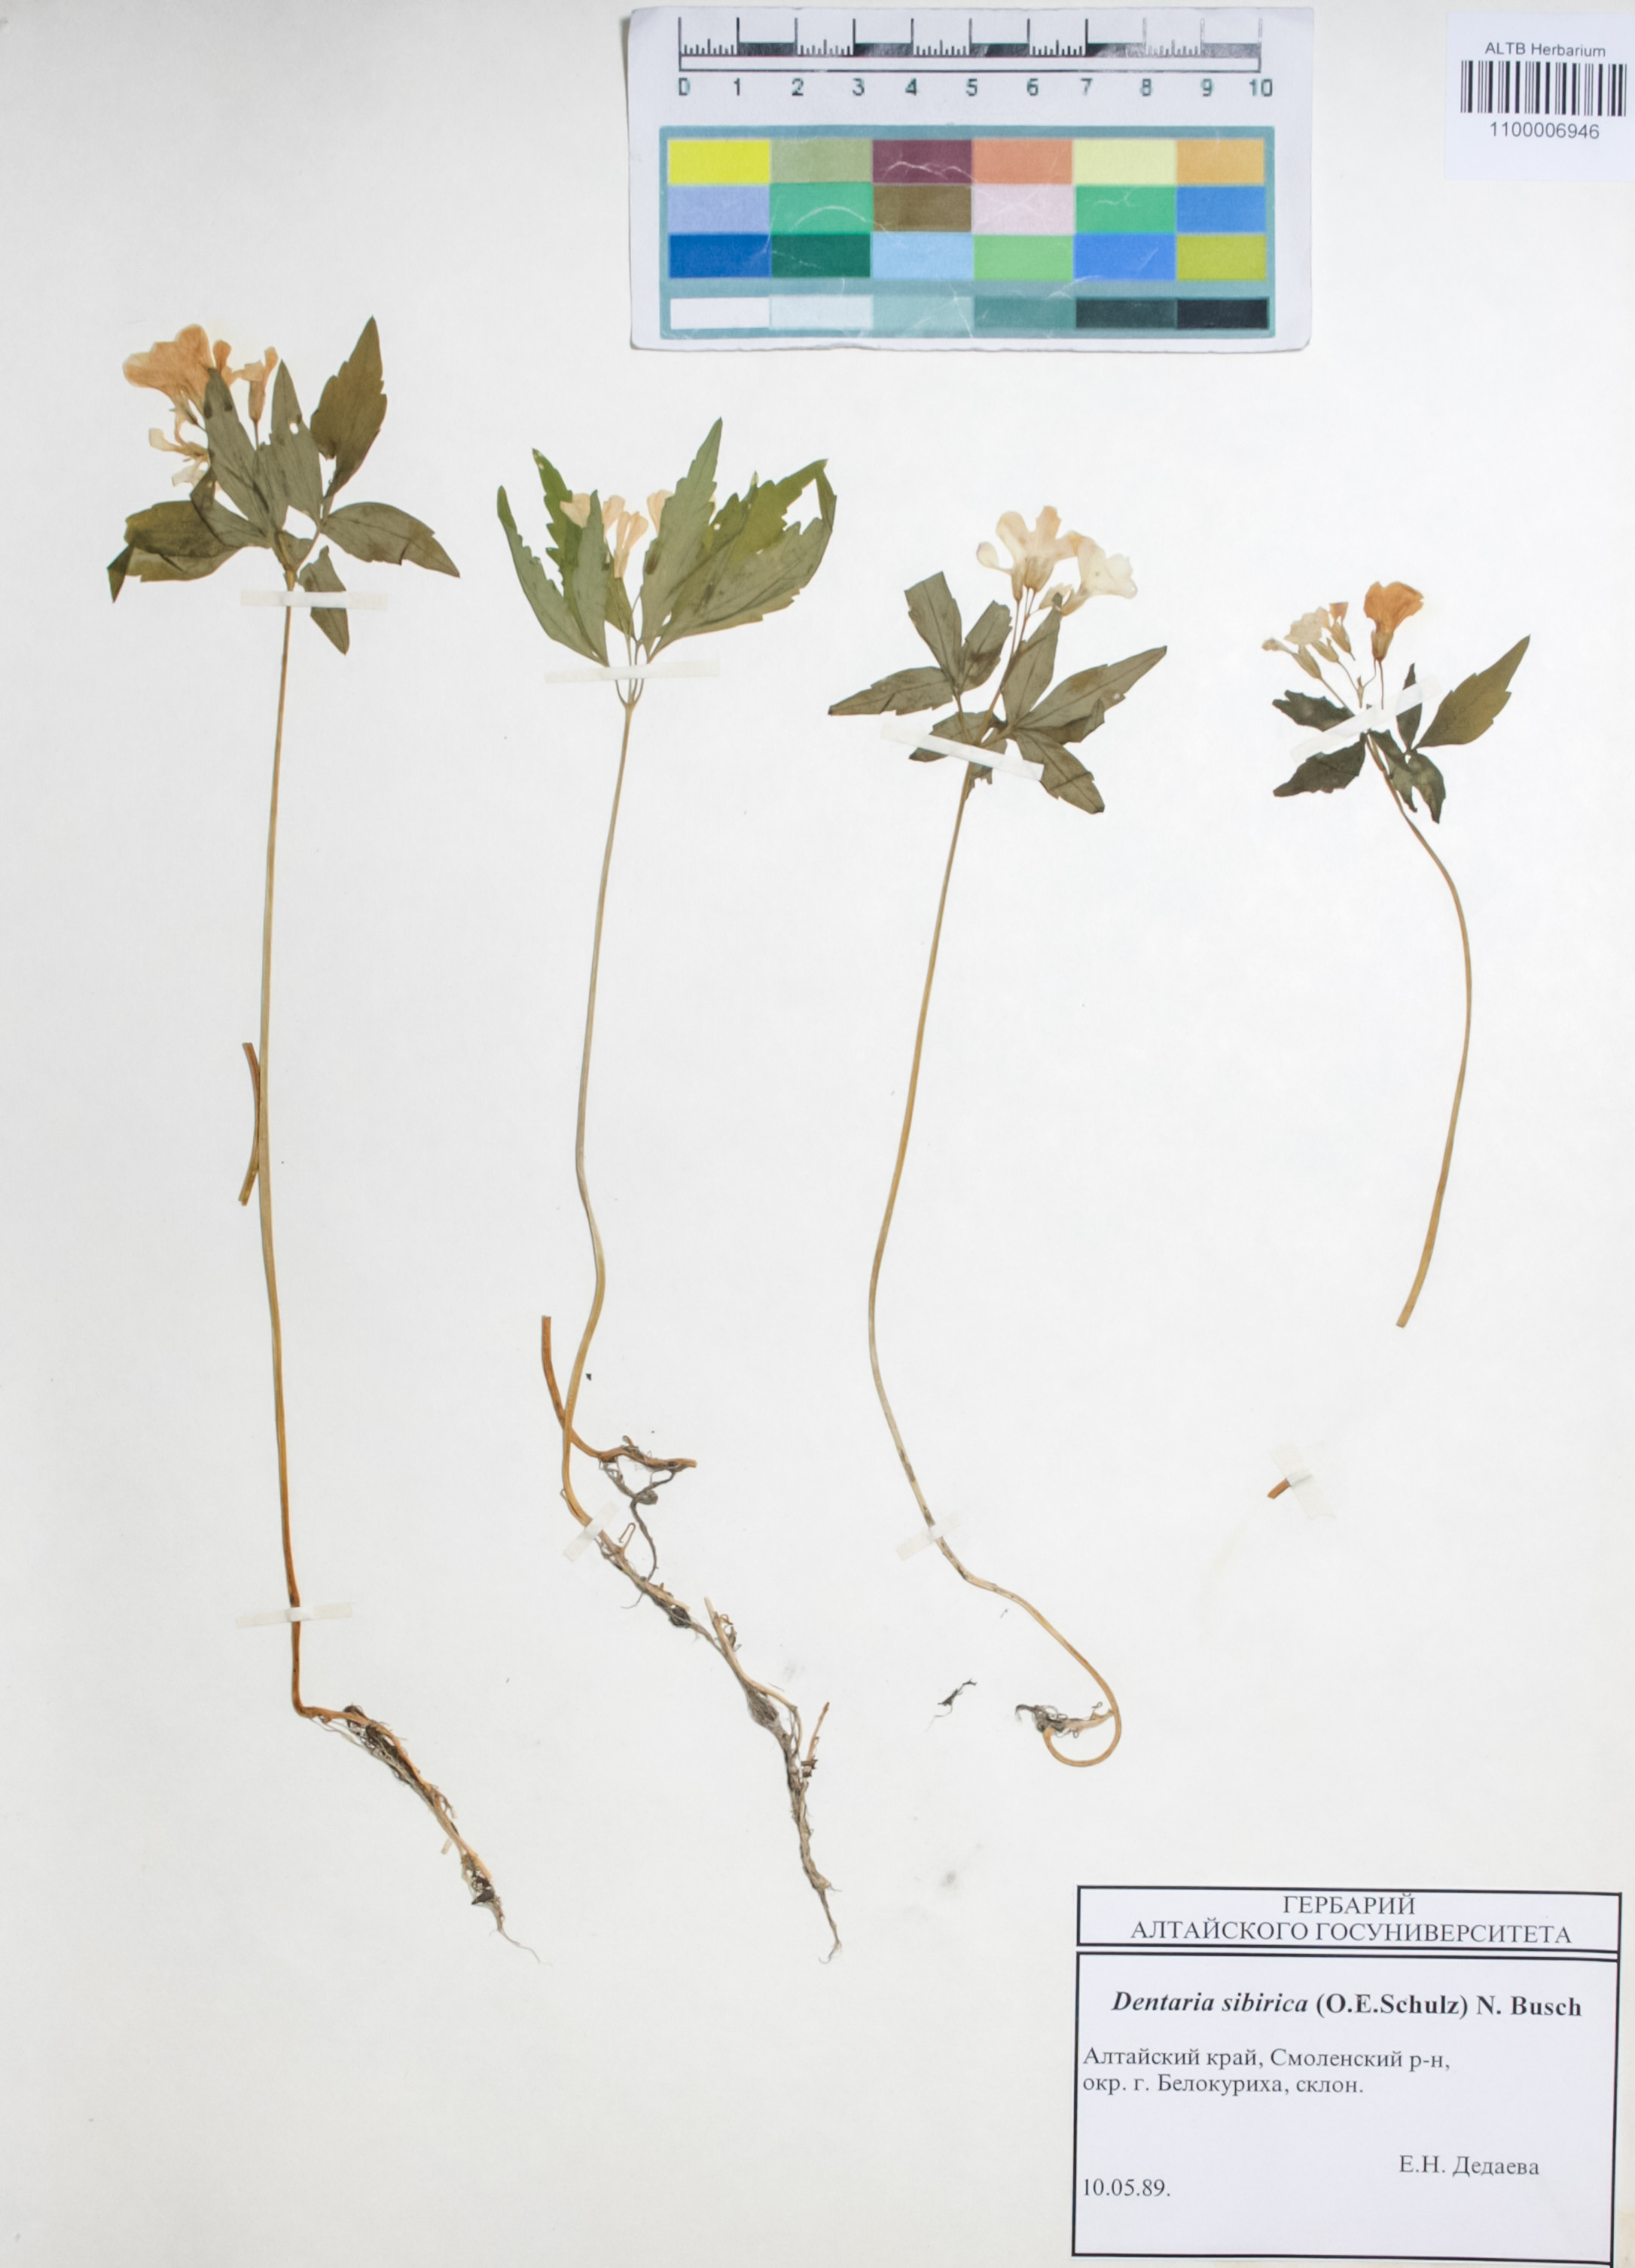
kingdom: Plantae
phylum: Tracheophyta
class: Magnoliopsida
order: Brassicales
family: Brassicaceae
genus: Cardamine
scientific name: Cardamine glanduligera
